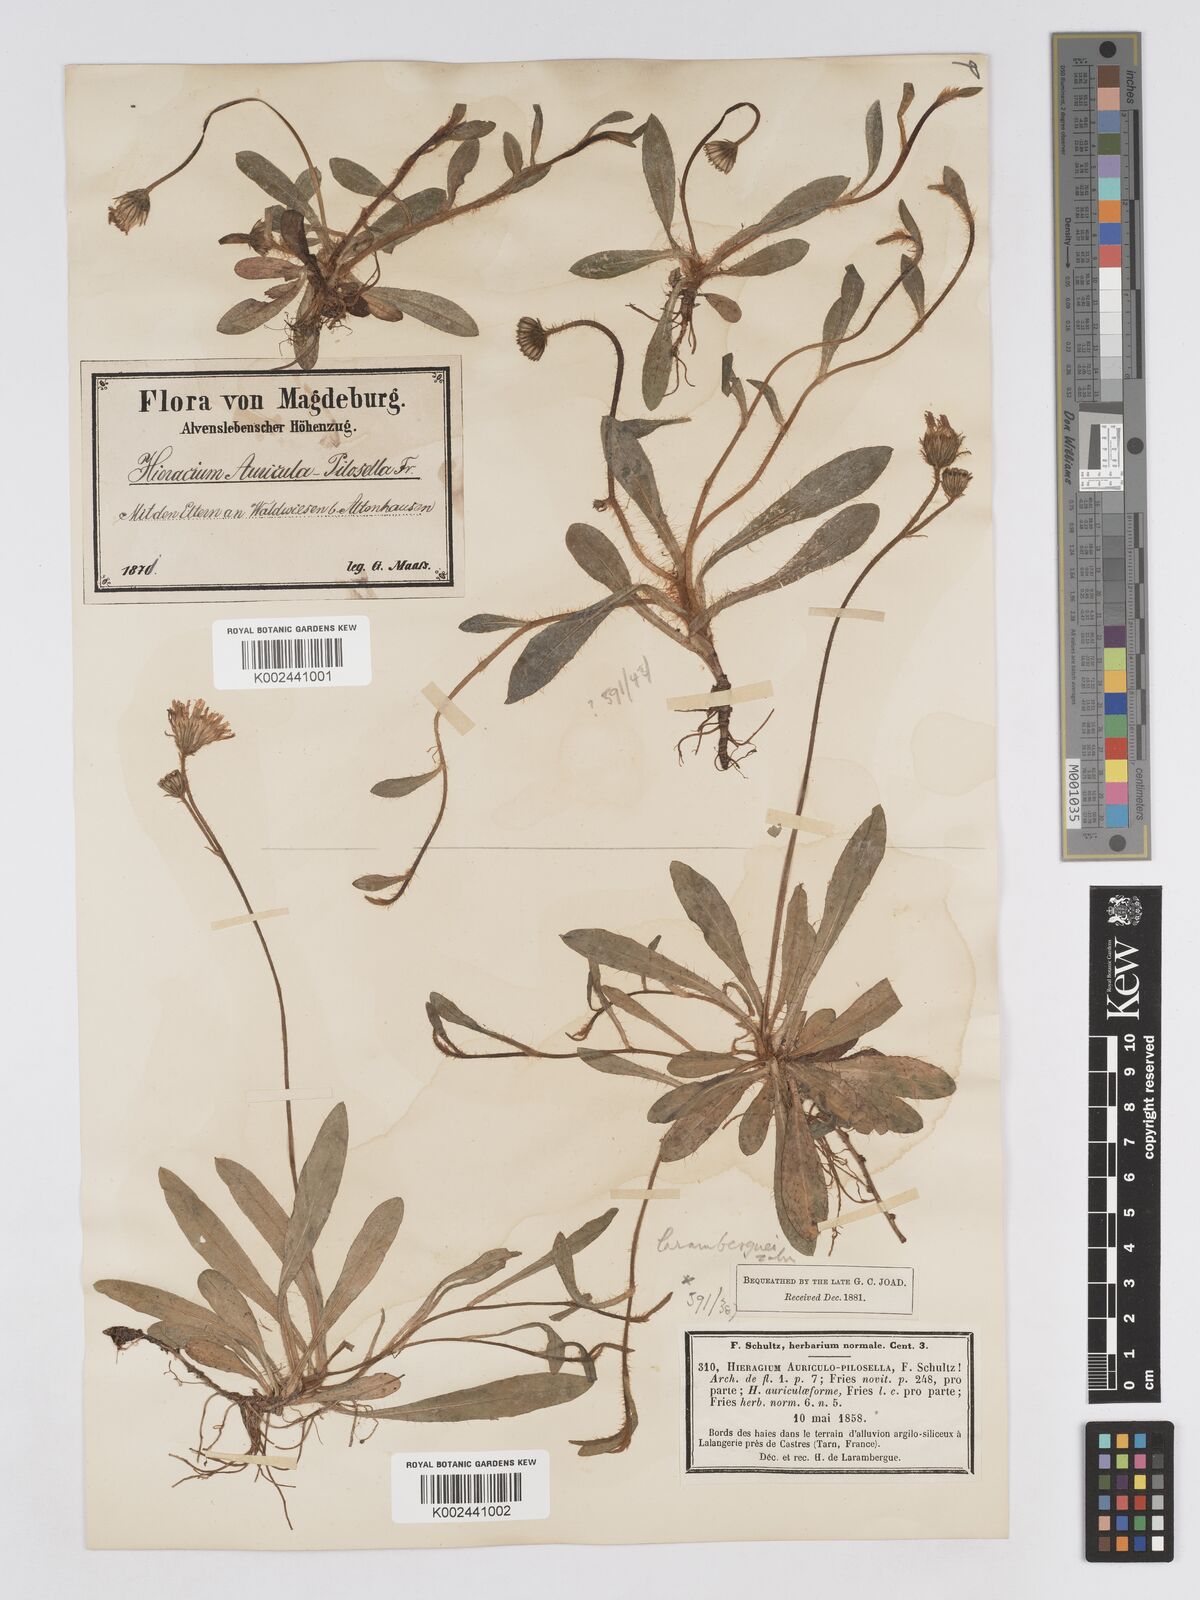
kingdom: Plantae
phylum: Tracheophyta
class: Magnoliopsida
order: Asterales
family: Asteraceae
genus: Pilosella
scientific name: Pilosella schultesii
